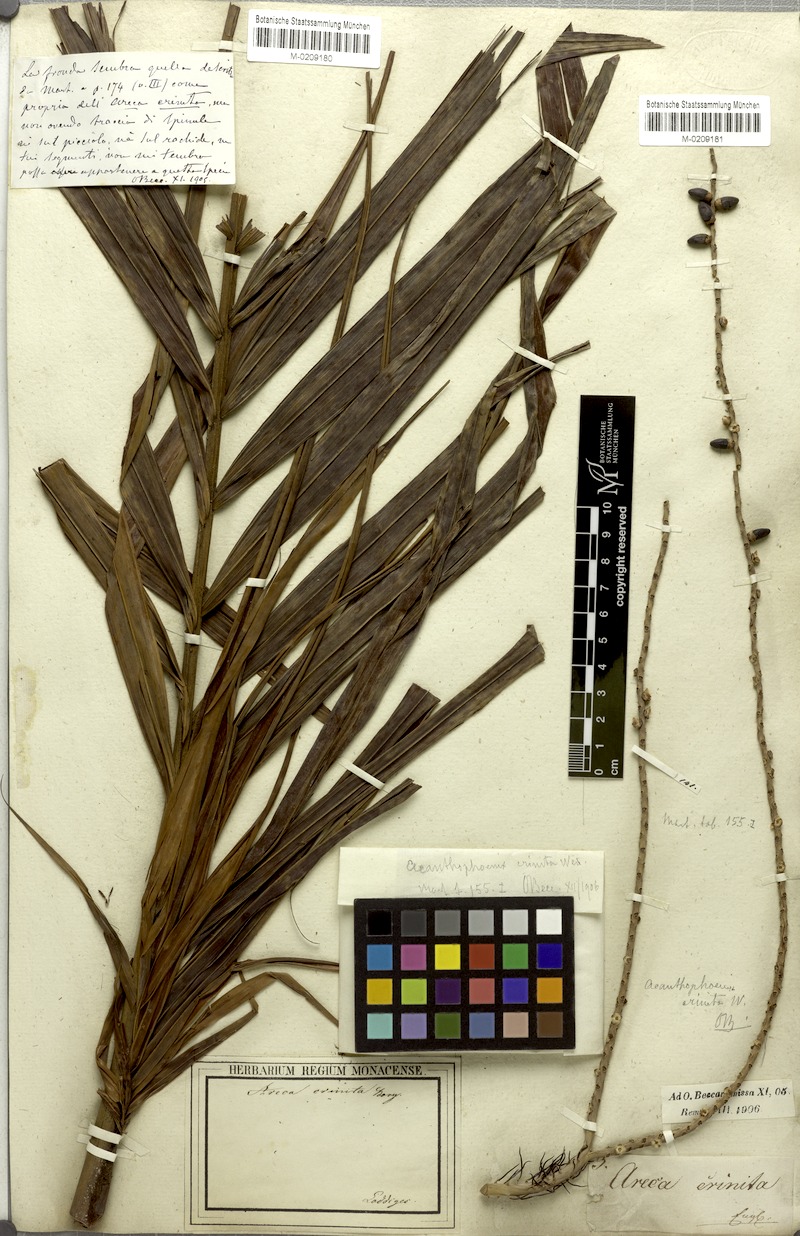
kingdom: Plantae
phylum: Tracheophyta
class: Liliopsida
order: Arecales
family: Arecaceae
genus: Acanthophoenix
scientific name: Acanthophoenix crinita
